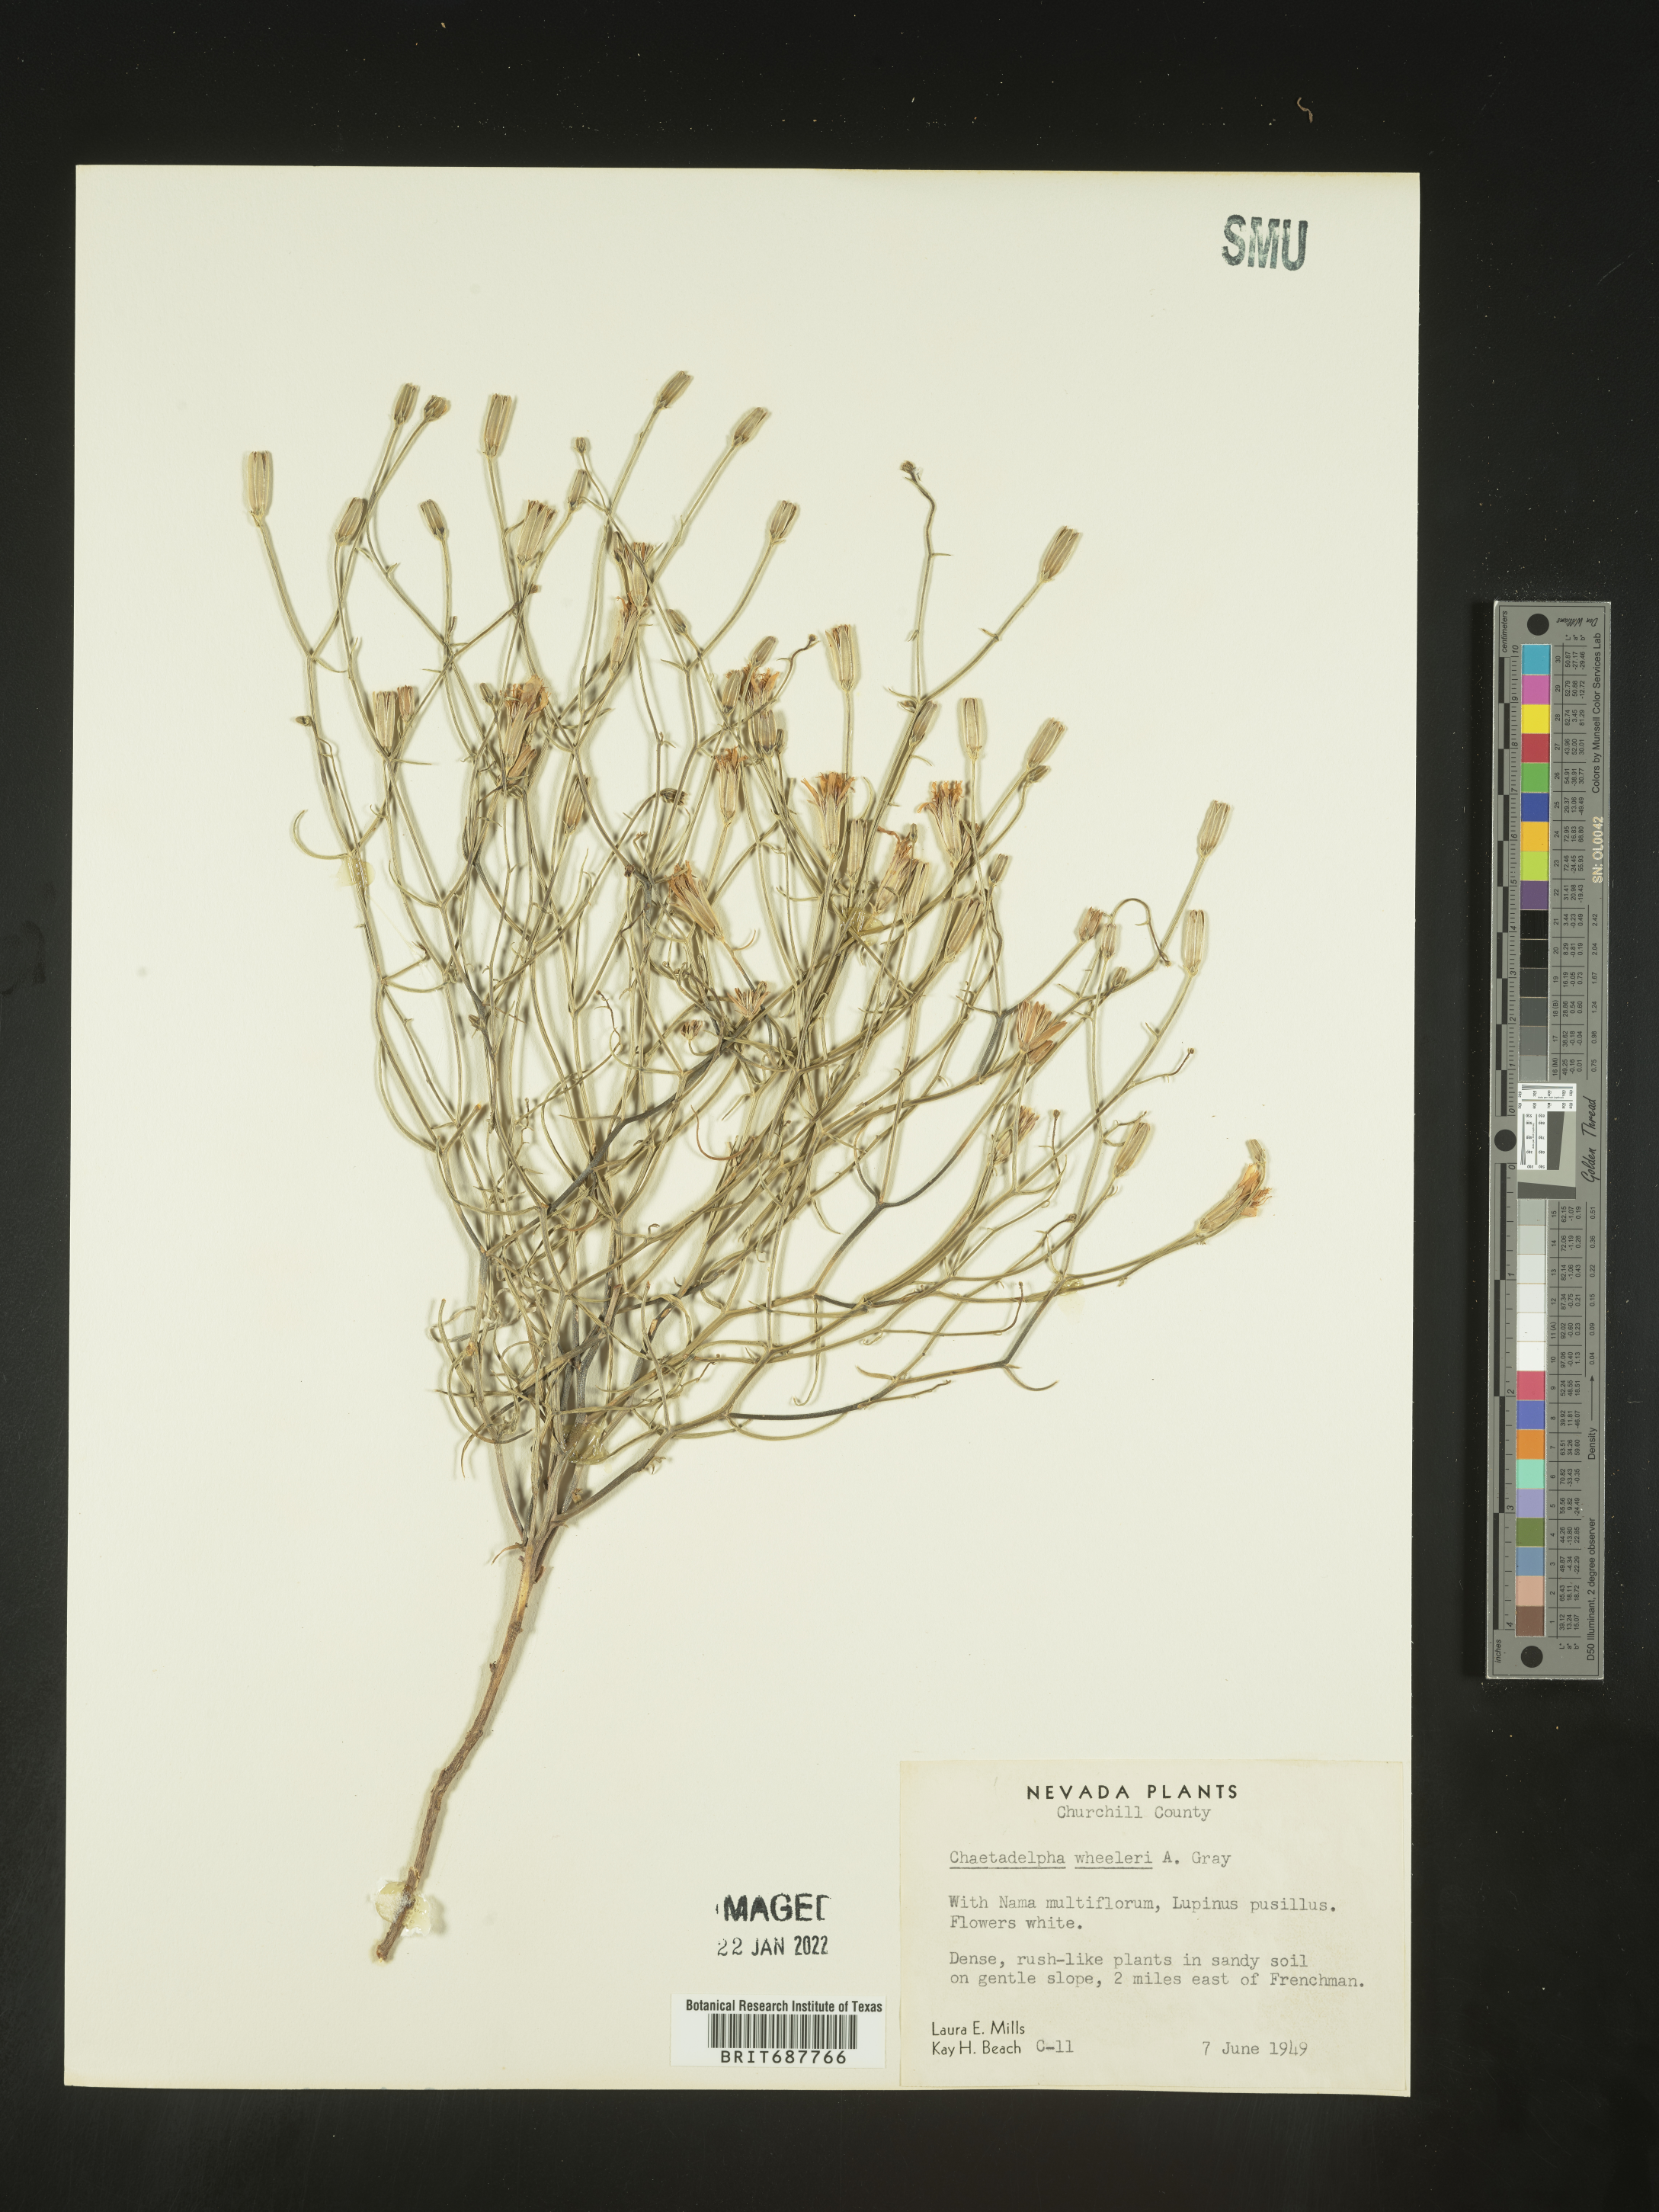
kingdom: Plantae
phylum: Tracheophyta
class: Magnoliopsida
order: Asterales
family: Asteraceae
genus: Chaetadelpha
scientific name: Chaetadelpha wheeleri
